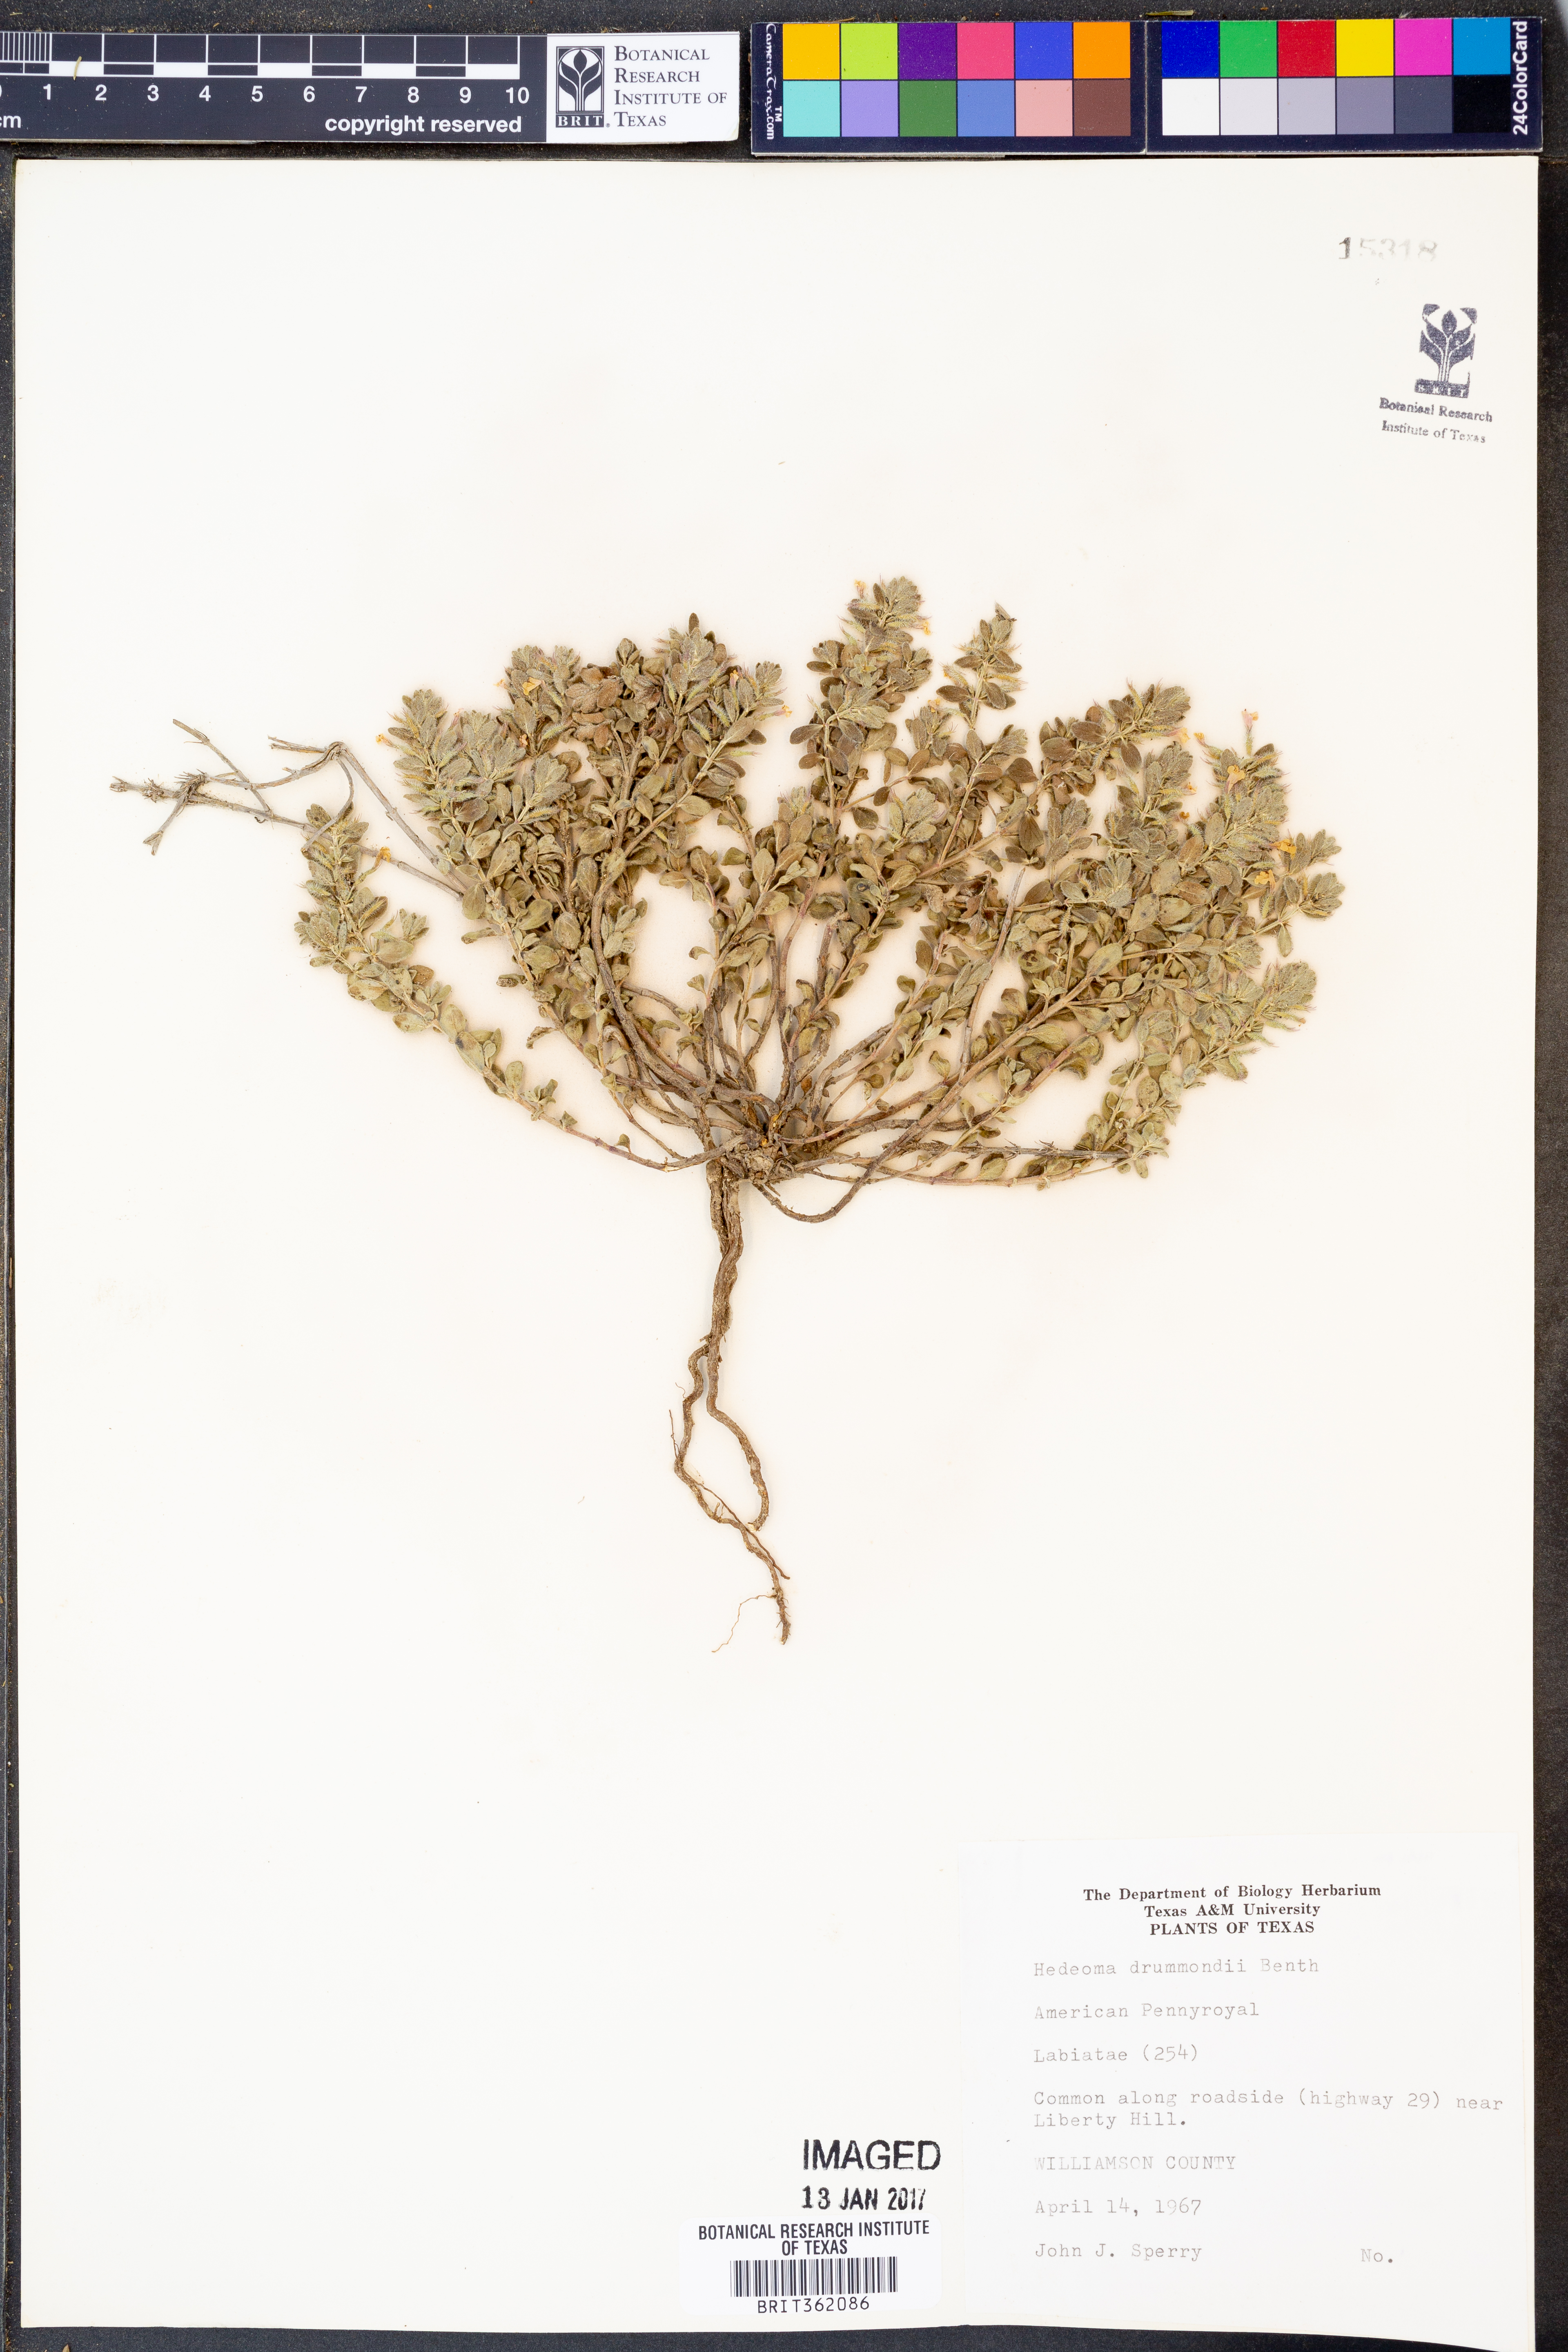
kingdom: Plantae
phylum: Tracheophyta
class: Magnoliopsida
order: Lamiales
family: Lamiaceae
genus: Hedeoma
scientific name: Hedeoma drummondii
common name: New mexico pennyroyal
